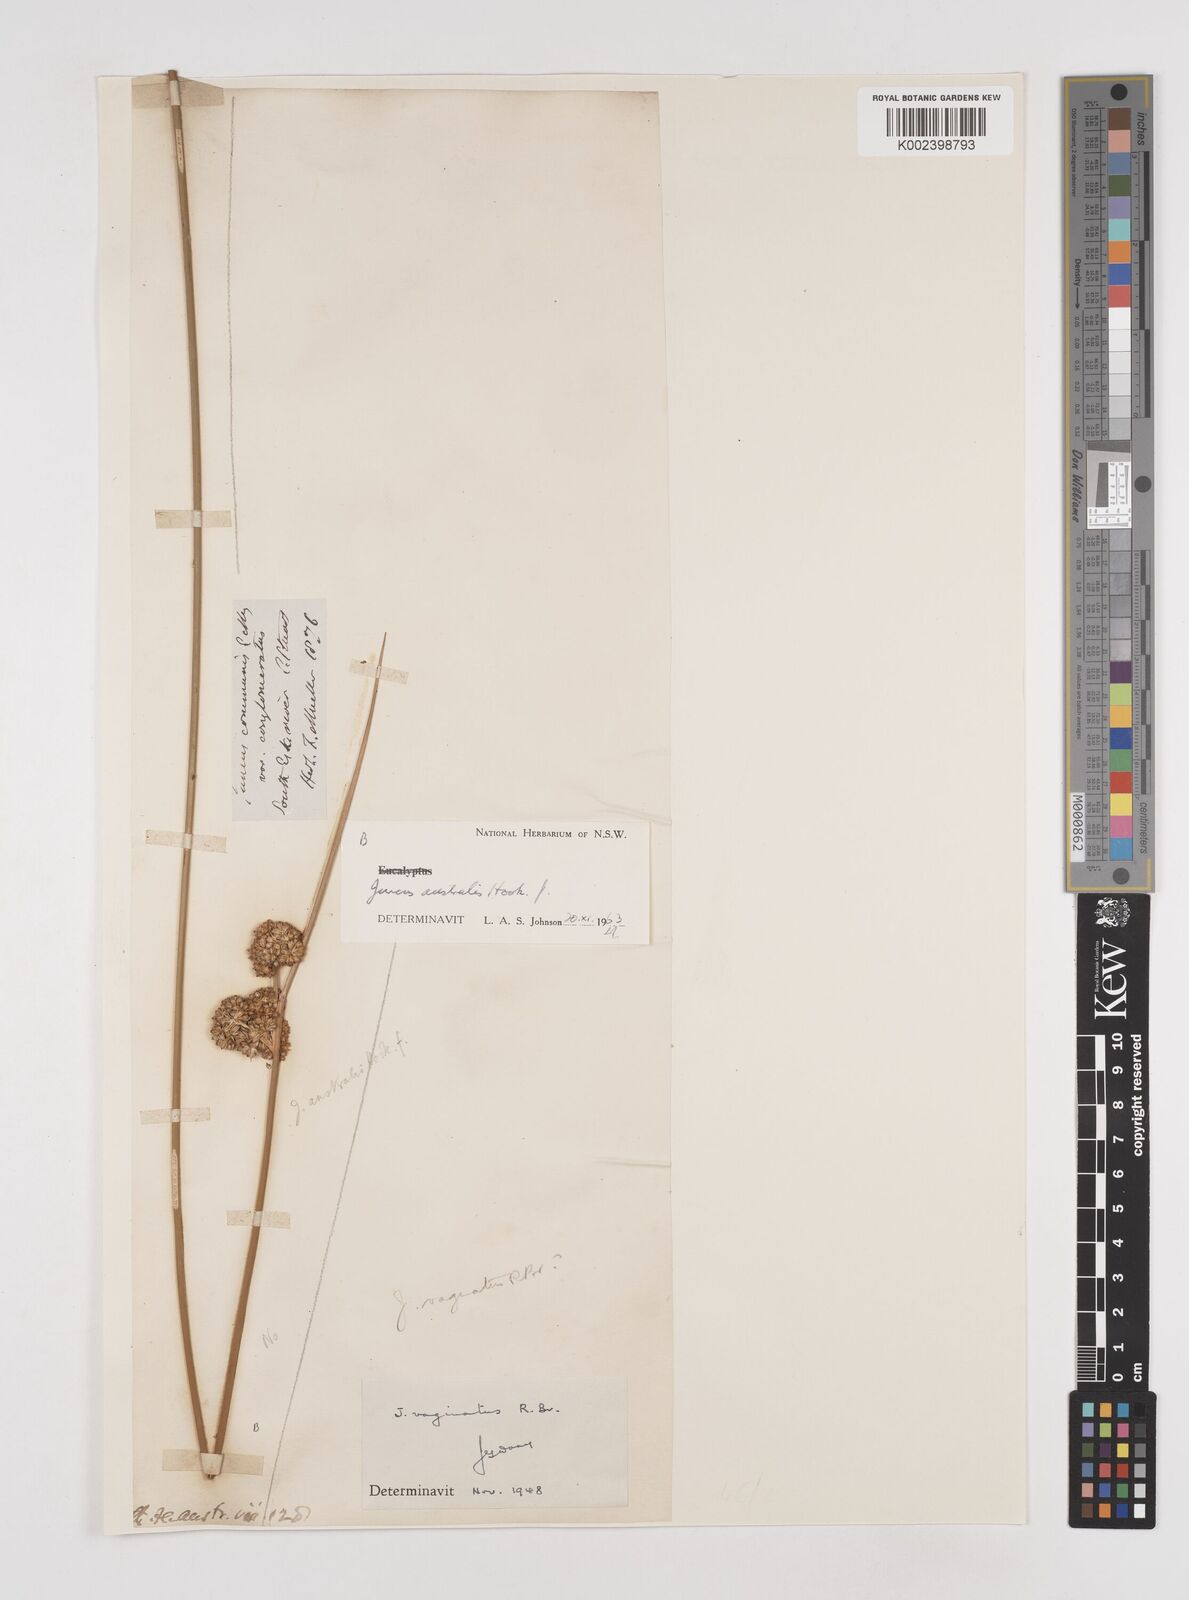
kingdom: Plantae
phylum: Tracheophyta
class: Liliopsida
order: Poales
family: Juncaceae
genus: Juncus
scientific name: Juncus australis
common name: Austral rush
